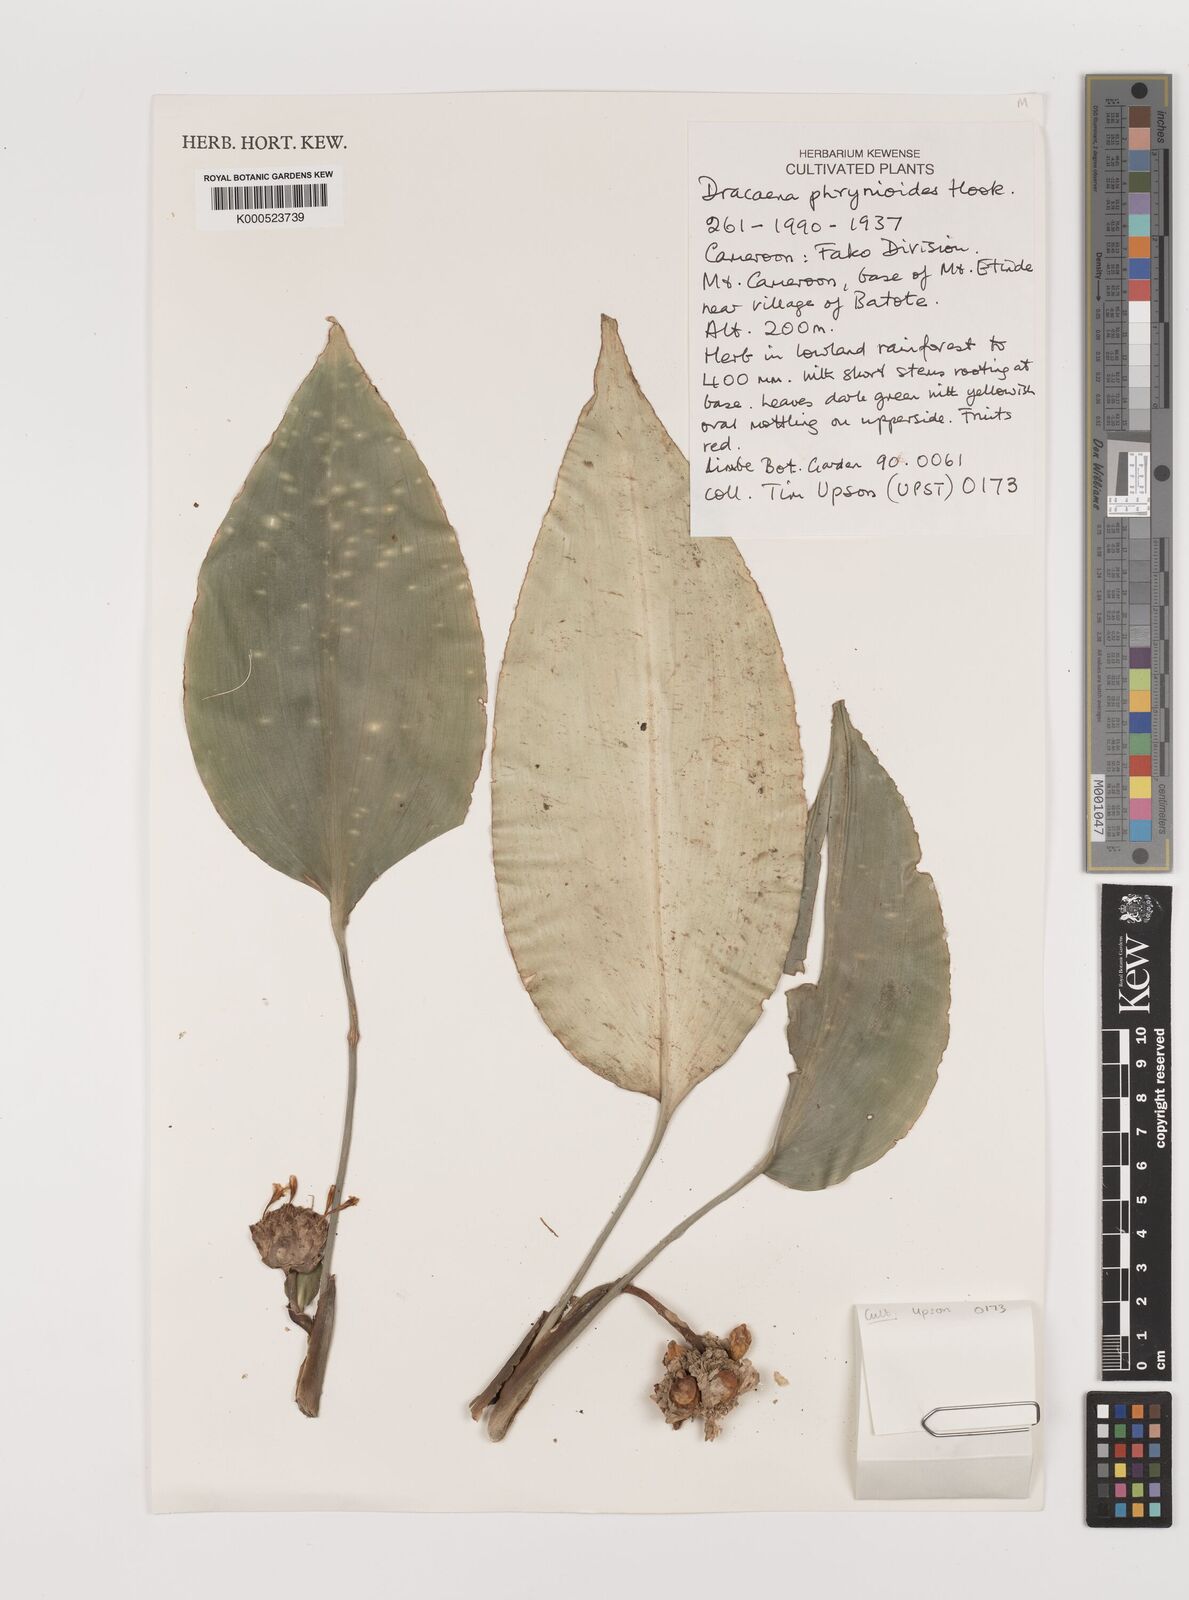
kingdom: Plantae
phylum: Tracheophyta
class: Liliopsida
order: Asparagales
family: Asparagaceae
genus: Dracaena
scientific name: Dracaena phrynioides
